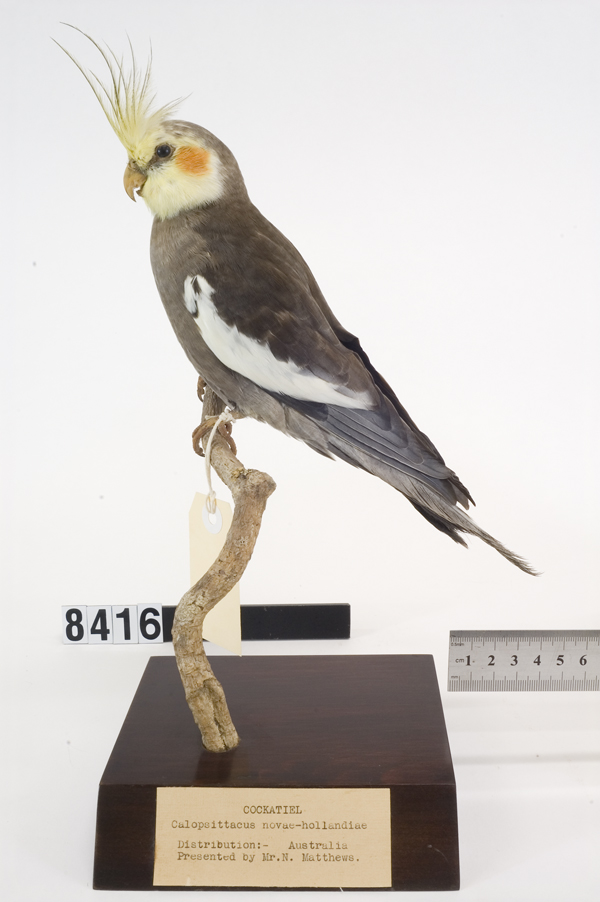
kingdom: Animalia
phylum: Chordata
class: Aves
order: Psittaciformes
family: Psittacidae
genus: Nymphicus
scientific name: Nymphicus hollandicus
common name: Cockatiel
